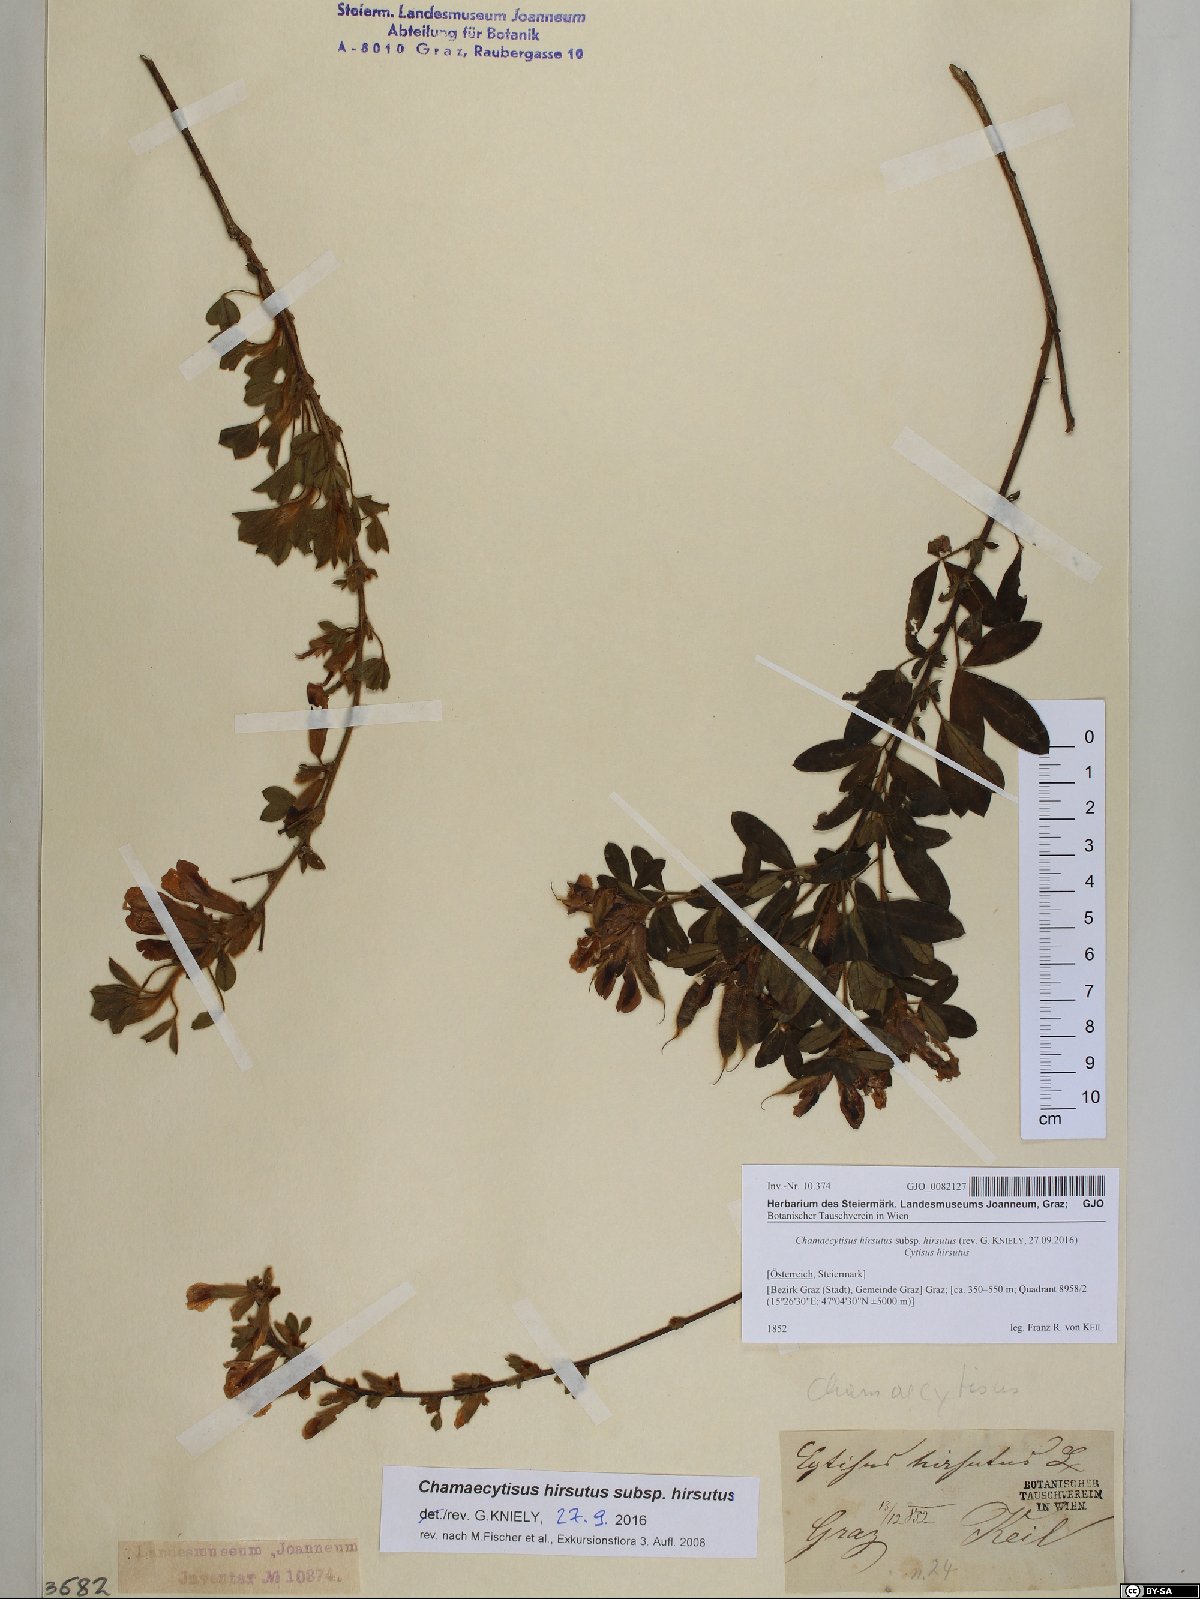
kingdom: Plantae
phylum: Tracheophyta
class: Magnoliopsida
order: Fabales
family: Fabaceae
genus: Chamaecytisus
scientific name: Chamaecytisus hirsutus
